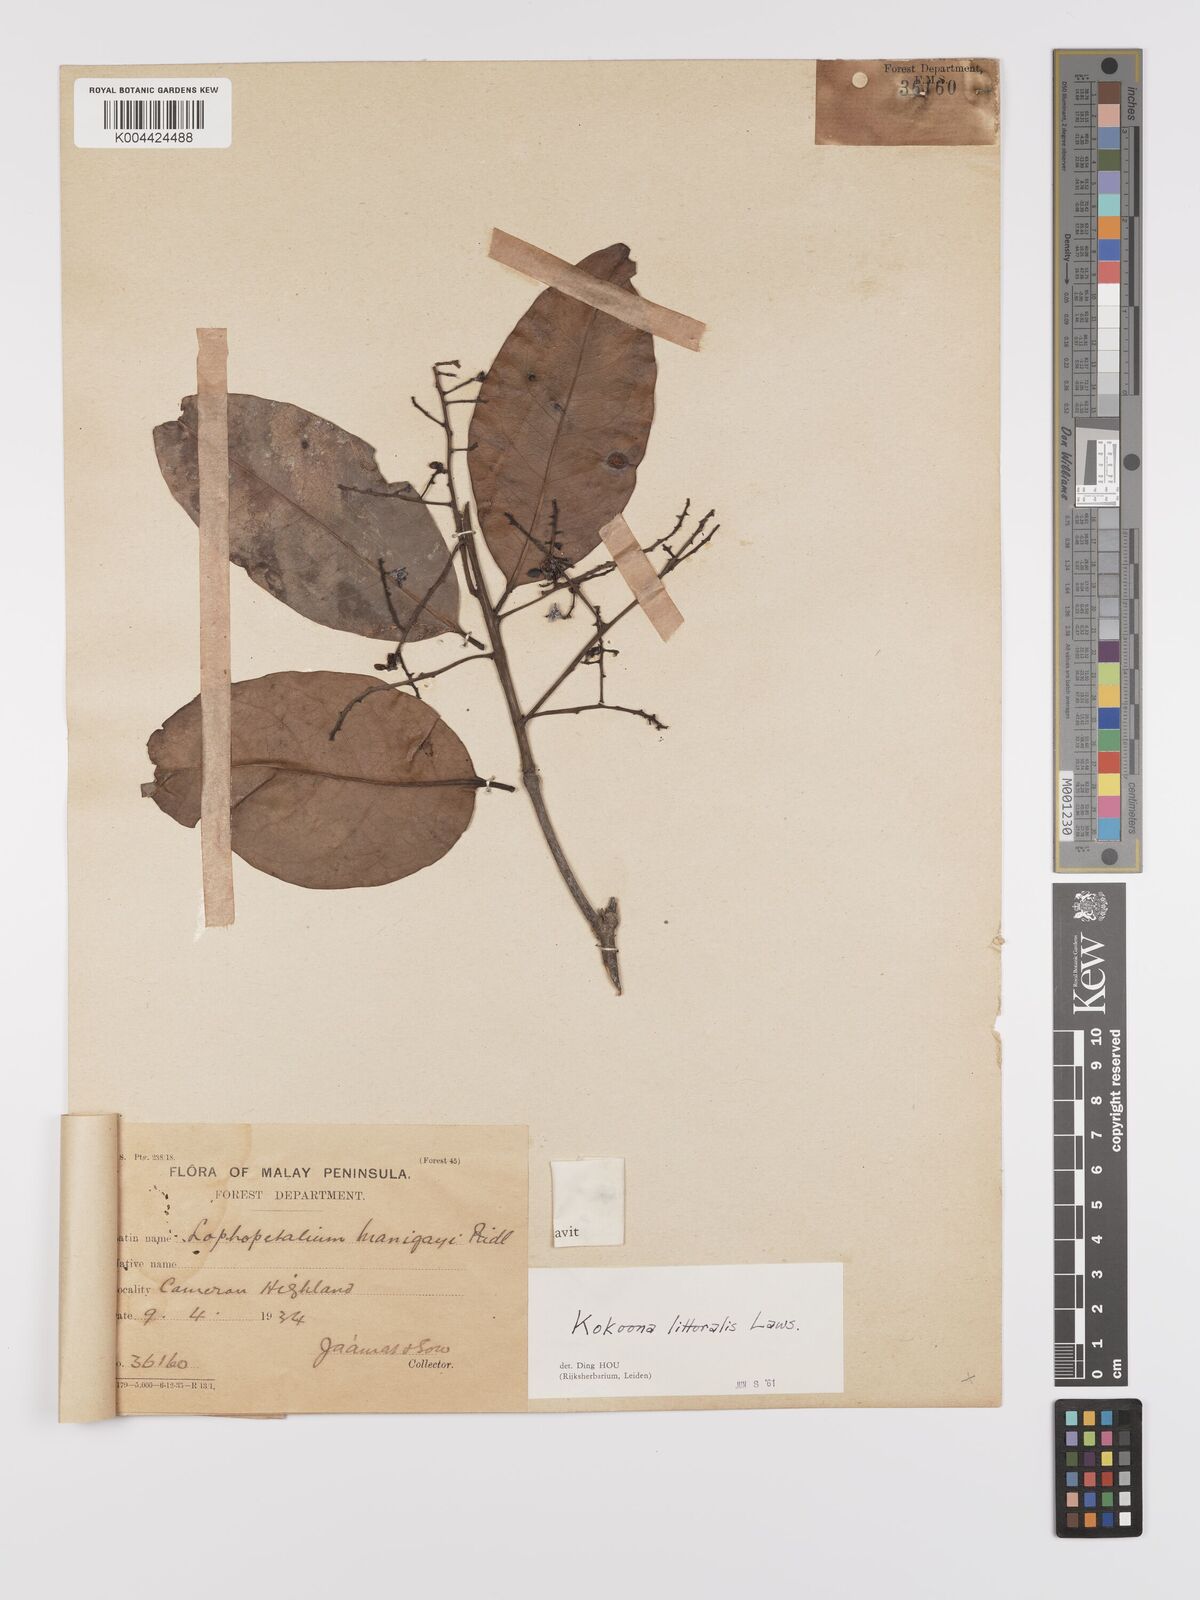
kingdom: Plantae
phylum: Tracheophyta
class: Magnoliopsida
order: Celastrales
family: Celastraceae
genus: Kokoona
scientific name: Kokoona littoralis
